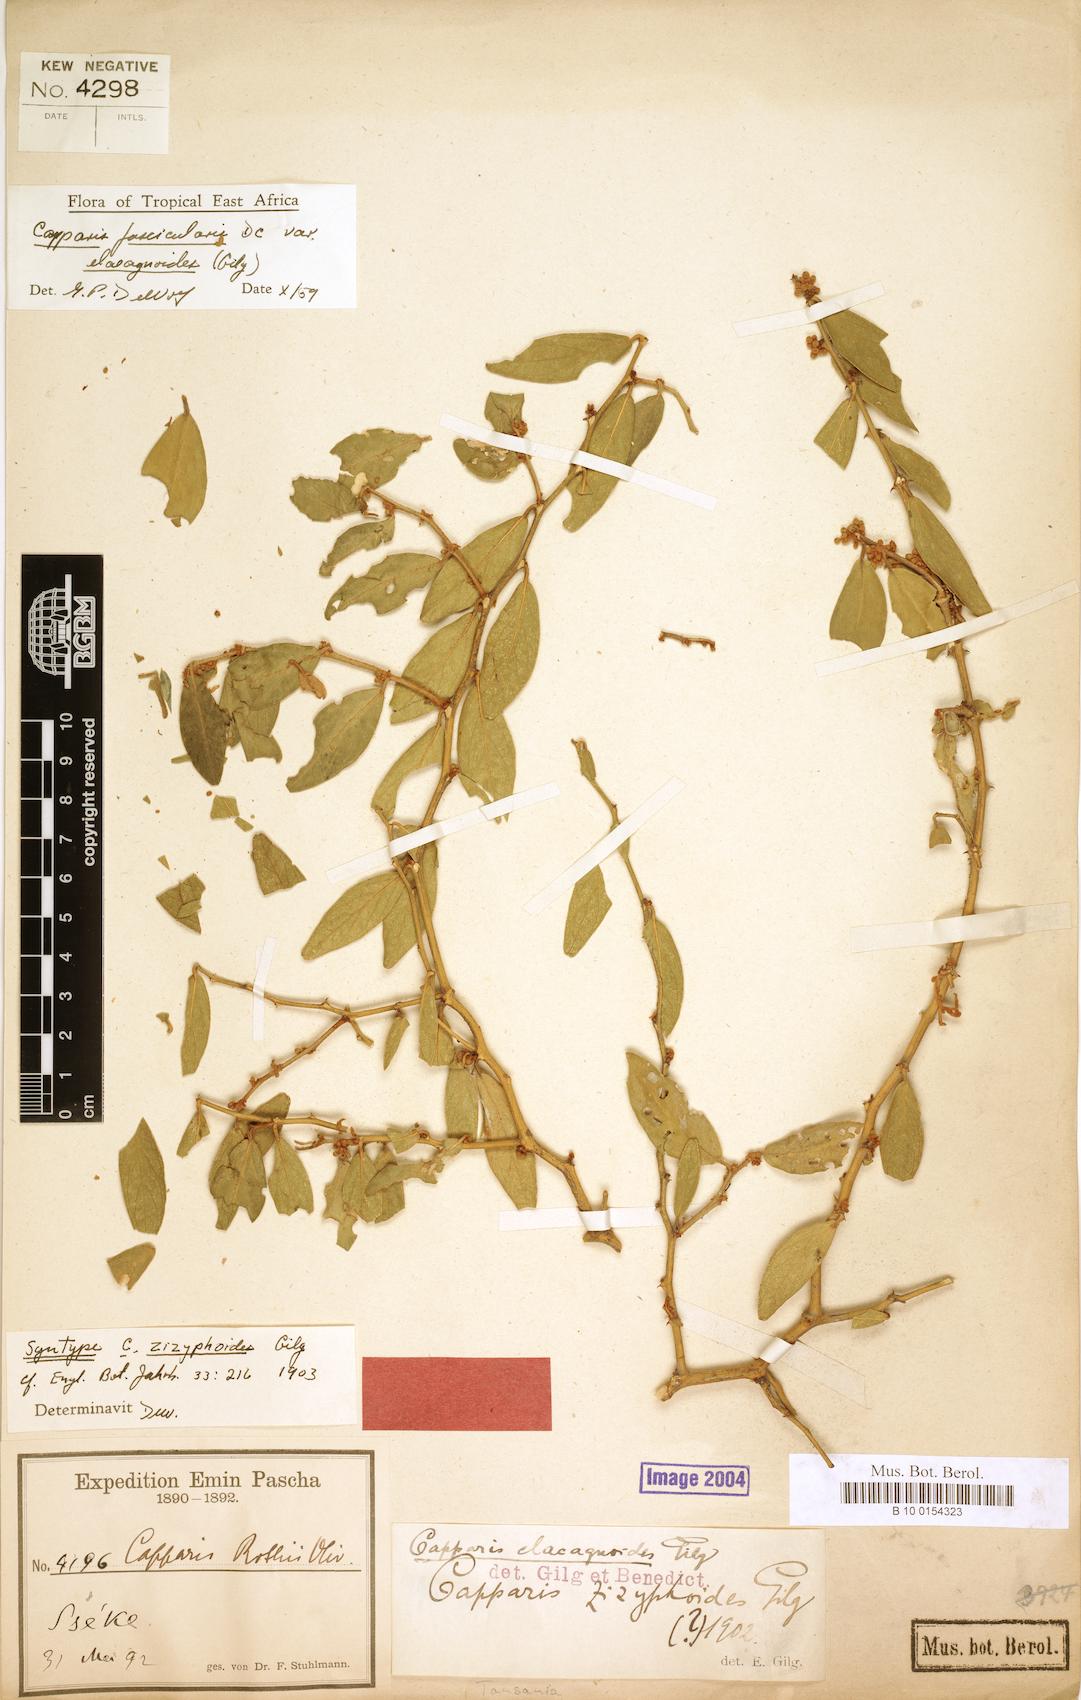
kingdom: Plantae
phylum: Tracheophyta
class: Magnoliopsida
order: Brassicales
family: Capparaceae
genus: Capparis
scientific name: Capparis fascicularis
